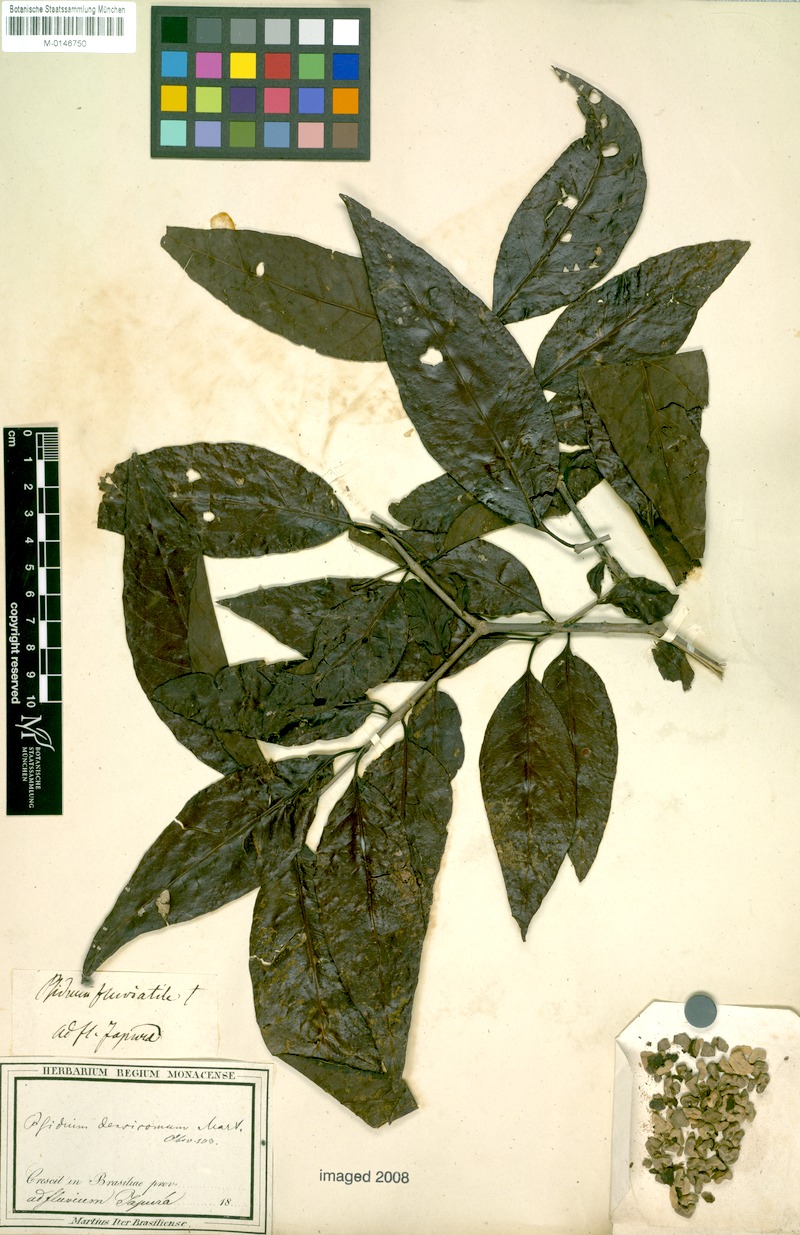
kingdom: Plantae
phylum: Tracheophyta
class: Magnoliopsida
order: Myrtales
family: Myrtaceae
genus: Psidium
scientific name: Psidium densicomum
